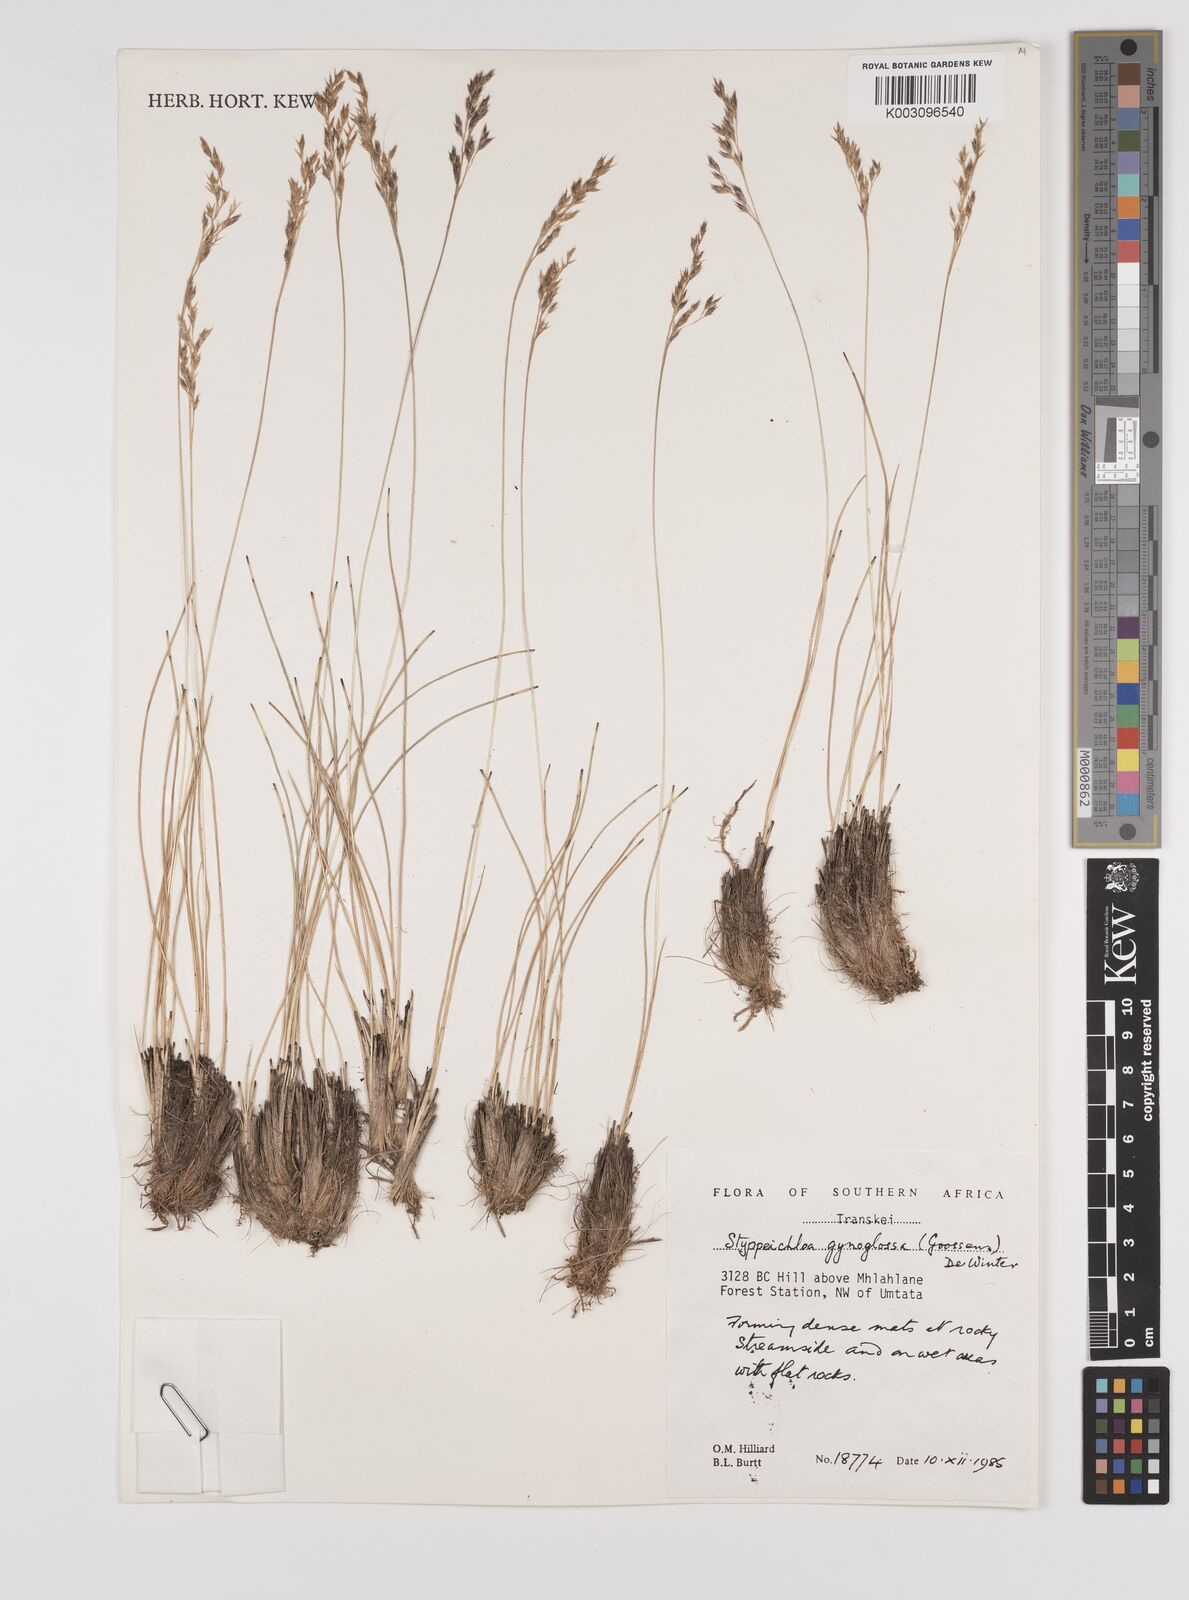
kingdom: Plantae
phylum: Tracheophyta
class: Liliopsida
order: Poales
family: Poaceae
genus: Styppeiochloa
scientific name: Styppeiochloa gynoglossa
